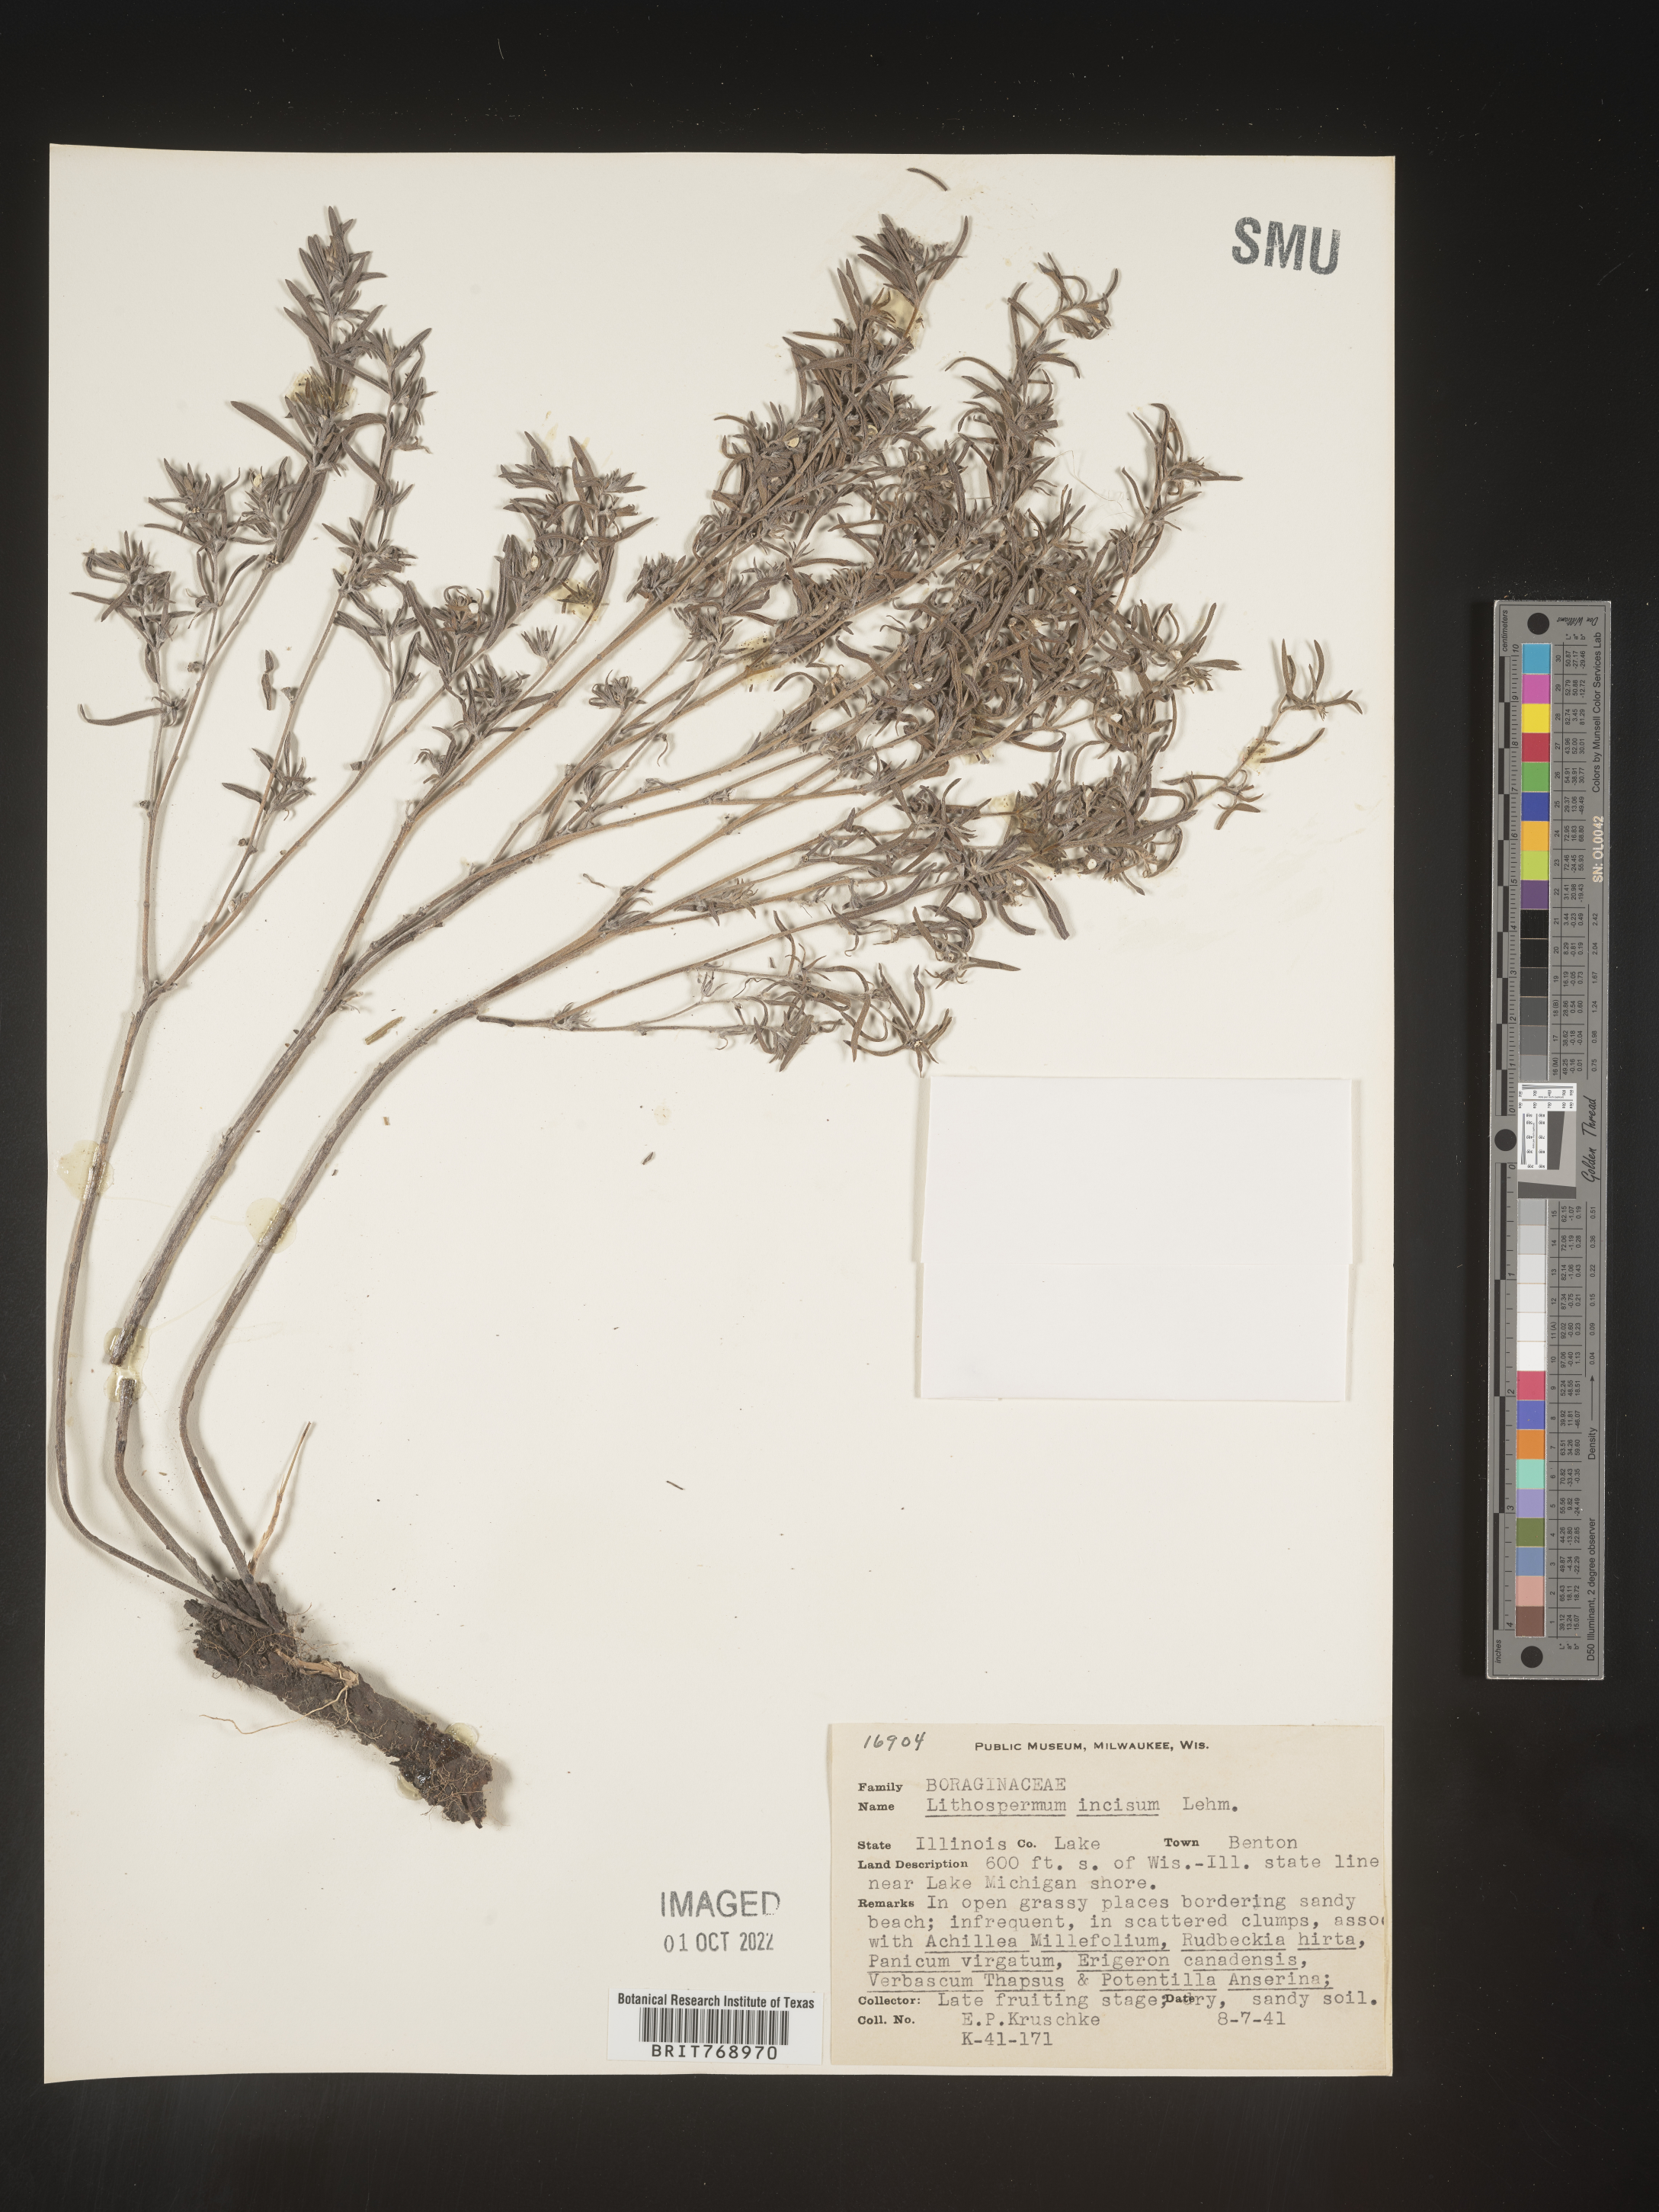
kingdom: Plantae
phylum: Tracheophyta
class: Magnoliopsida
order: Boraginales
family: Boraginaceae
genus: Lithospermum
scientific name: Lithospermum incisum
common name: Fringed gromwell
